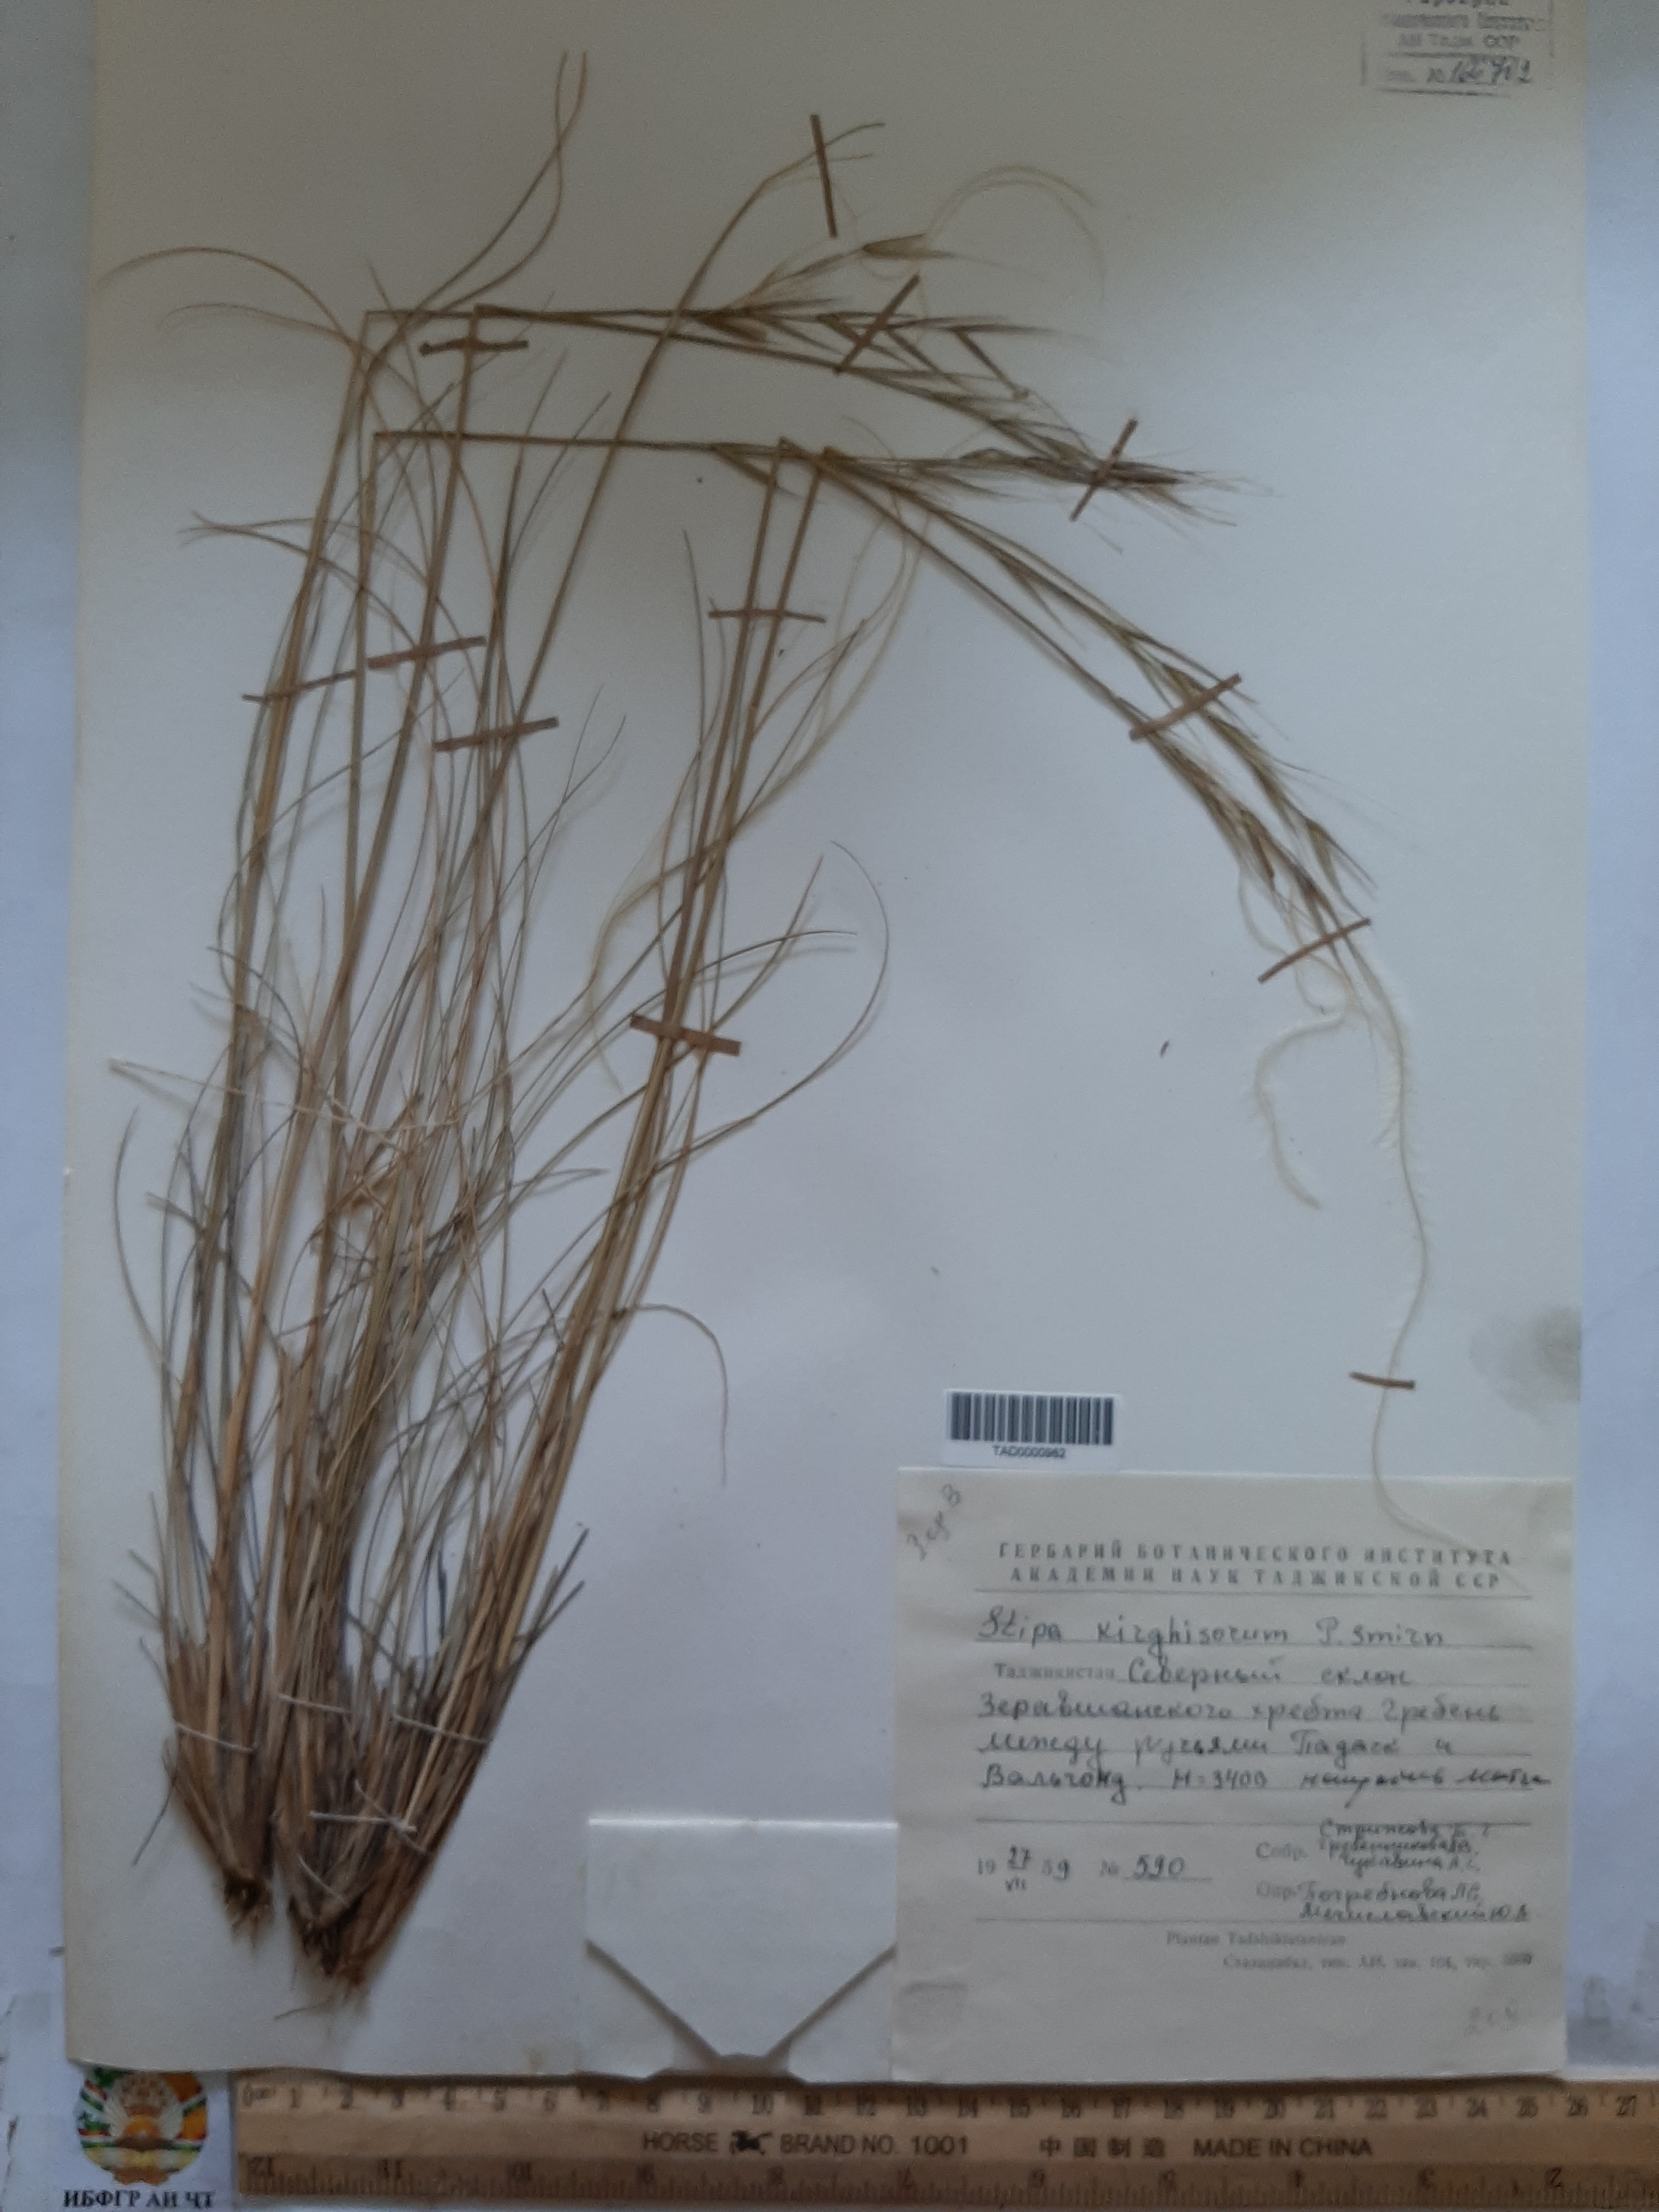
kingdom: Plantae
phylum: Tracheophyta
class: Liliopsida
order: Poales
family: Poaceae
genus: Stipa
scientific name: Stipa kirghisorum
